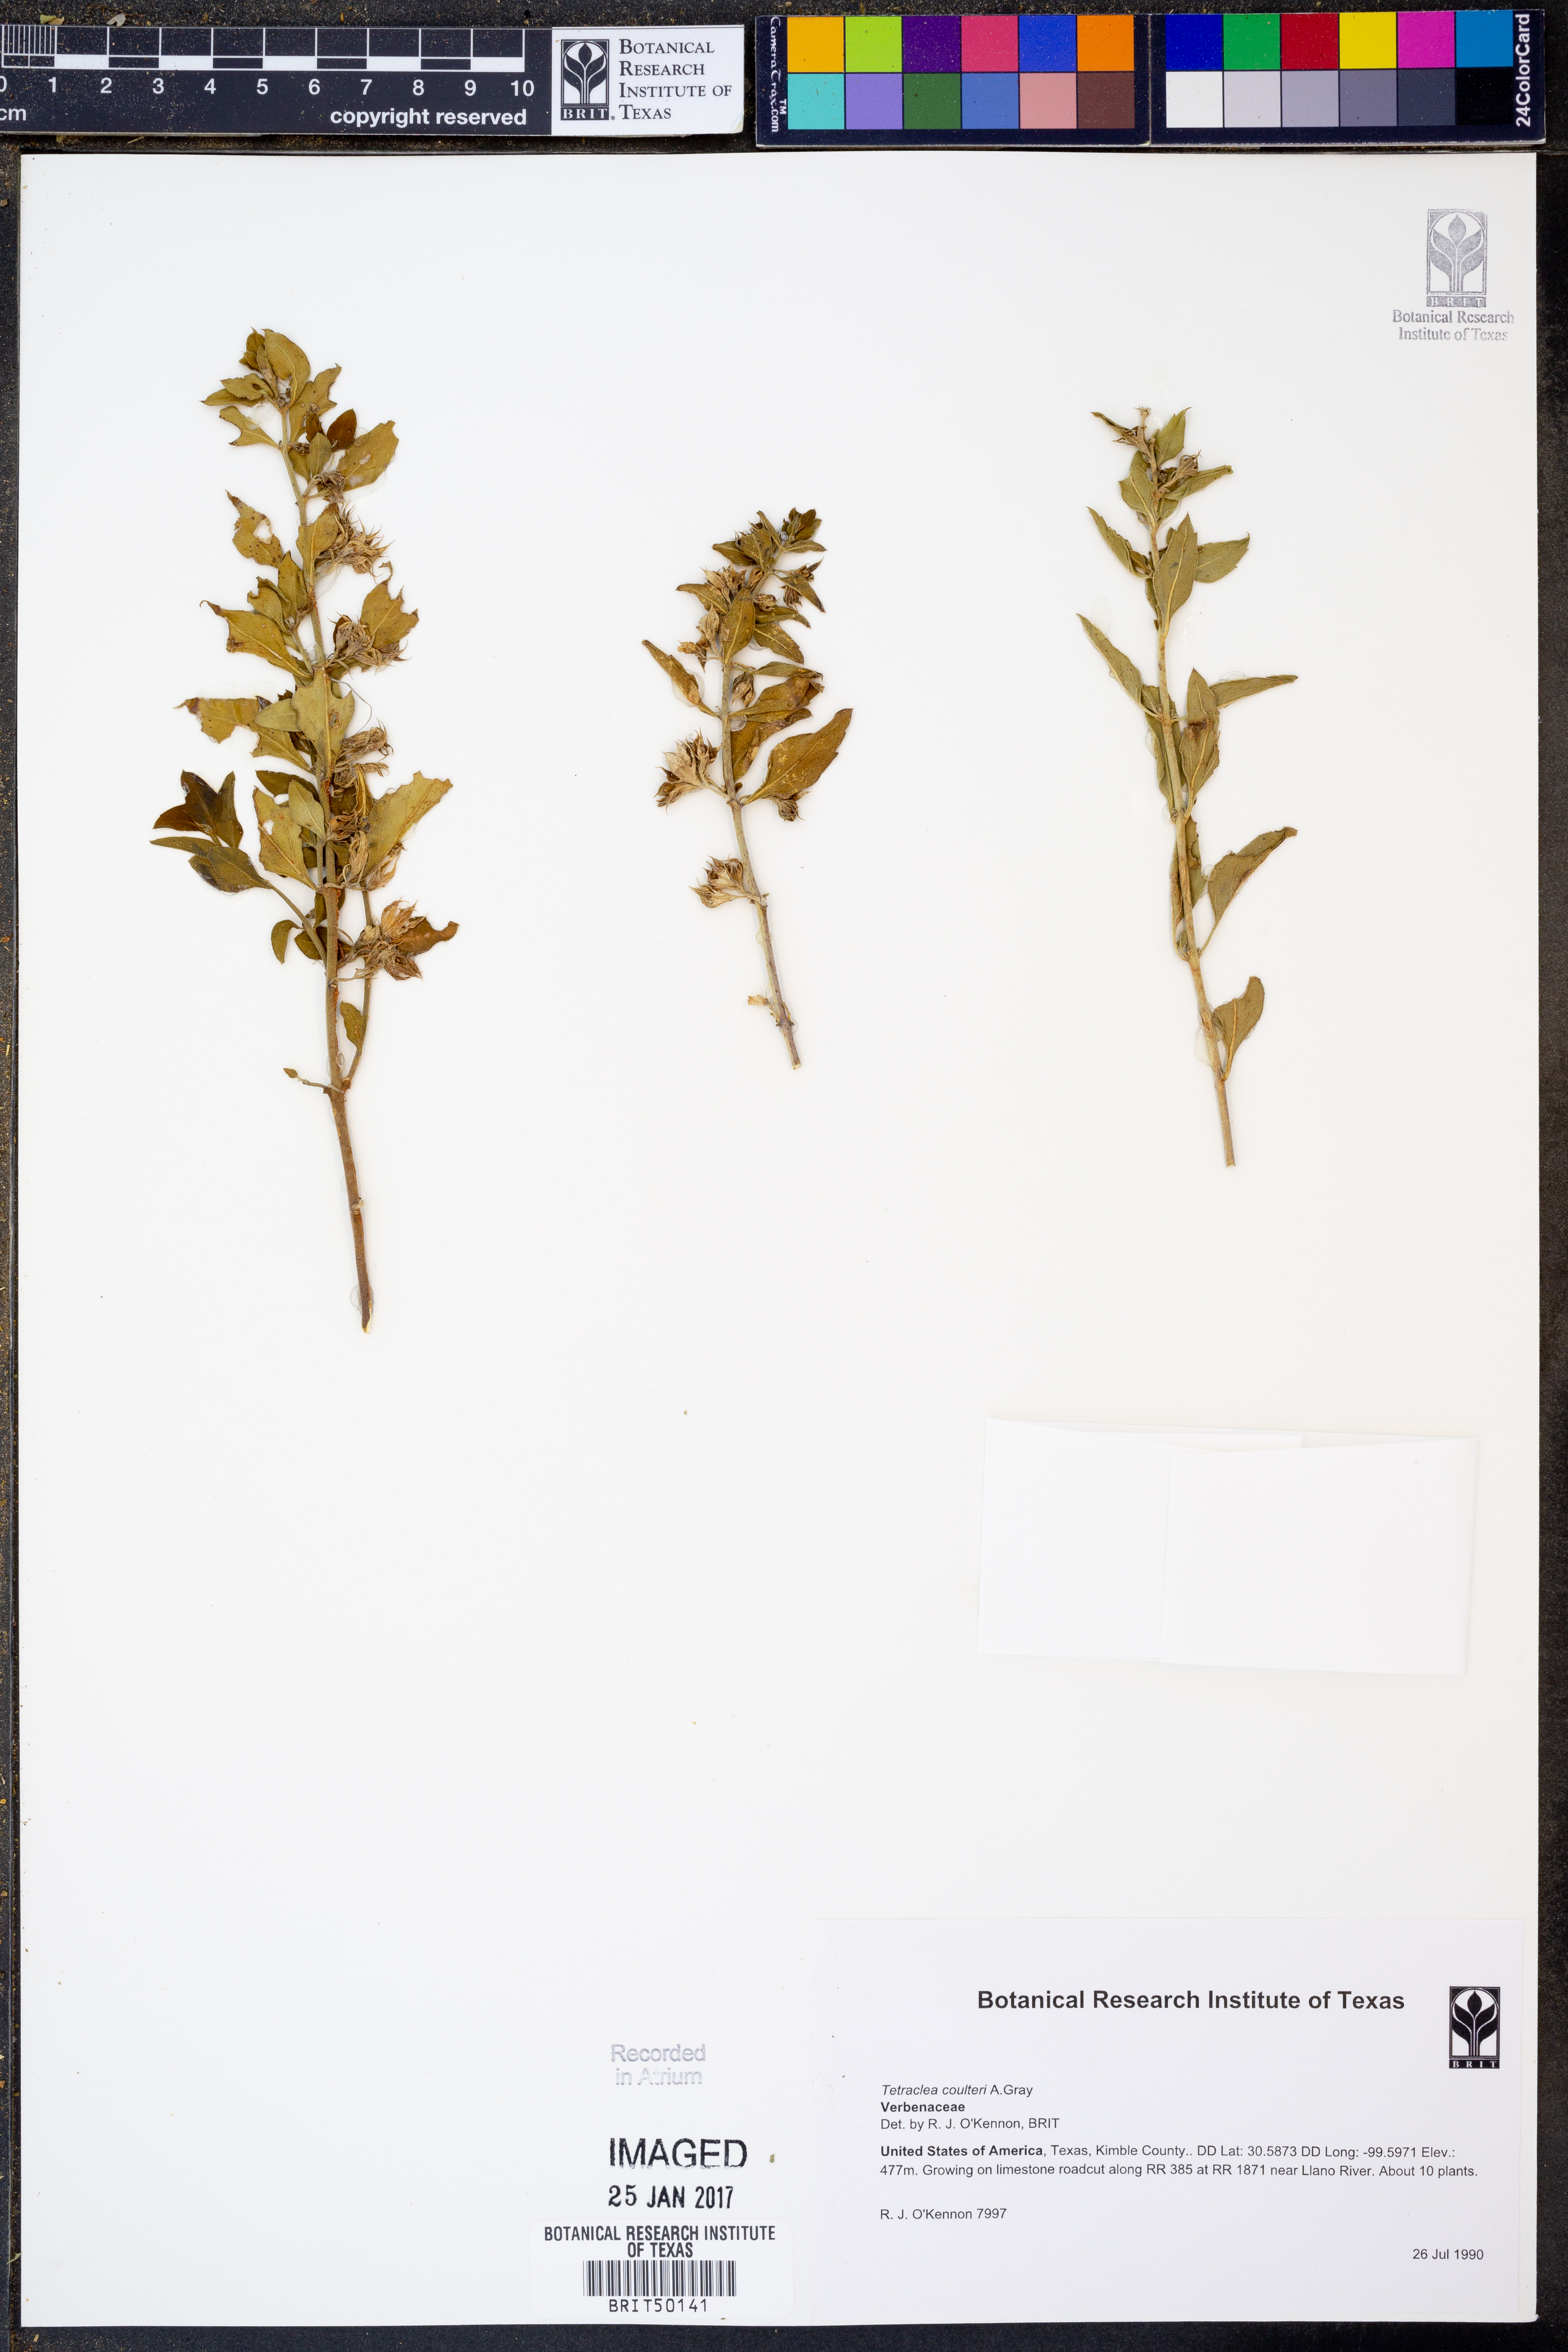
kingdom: Plantae
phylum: Tracheophyta
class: Magnoliopsida
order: Lamiales
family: Lamiaceae
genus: Tetraclea
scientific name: Tetraclea coulteri
